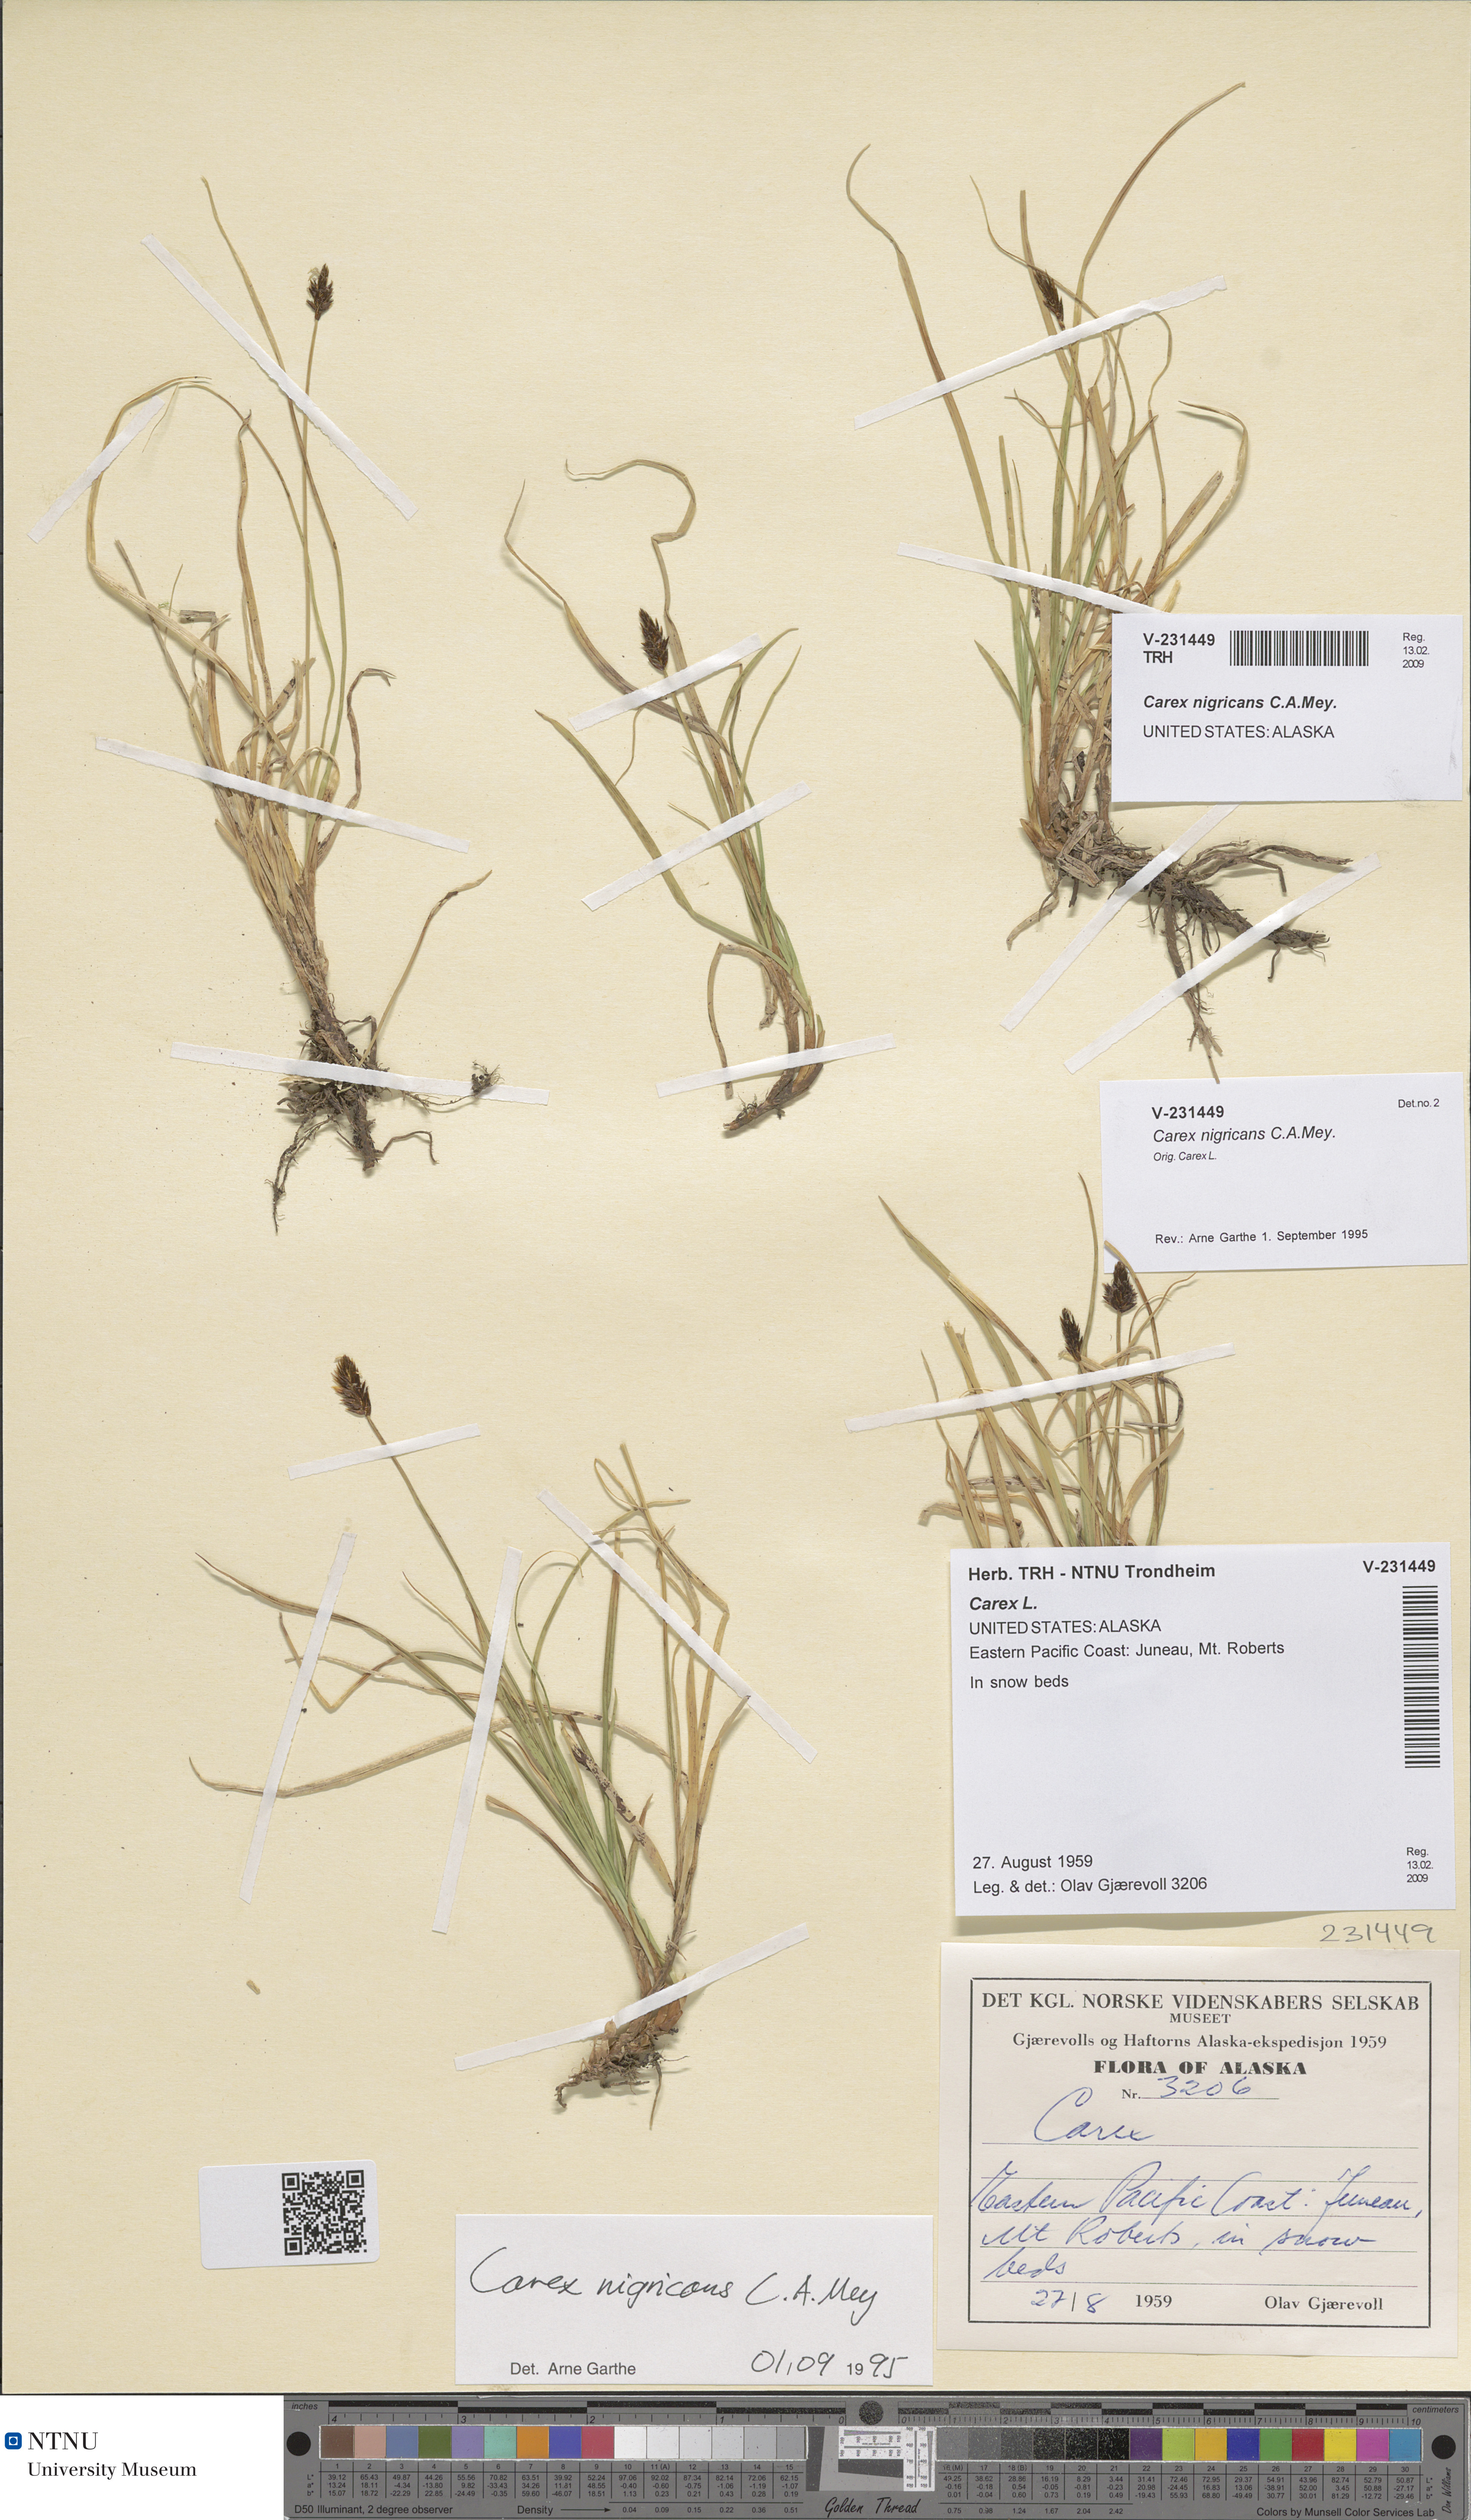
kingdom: Plantae
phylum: Tracheophyta
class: Liliopsida
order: Poales
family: Cyperaceae
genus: Carex
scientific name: Carex nigricans
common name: Black alpine sedge
